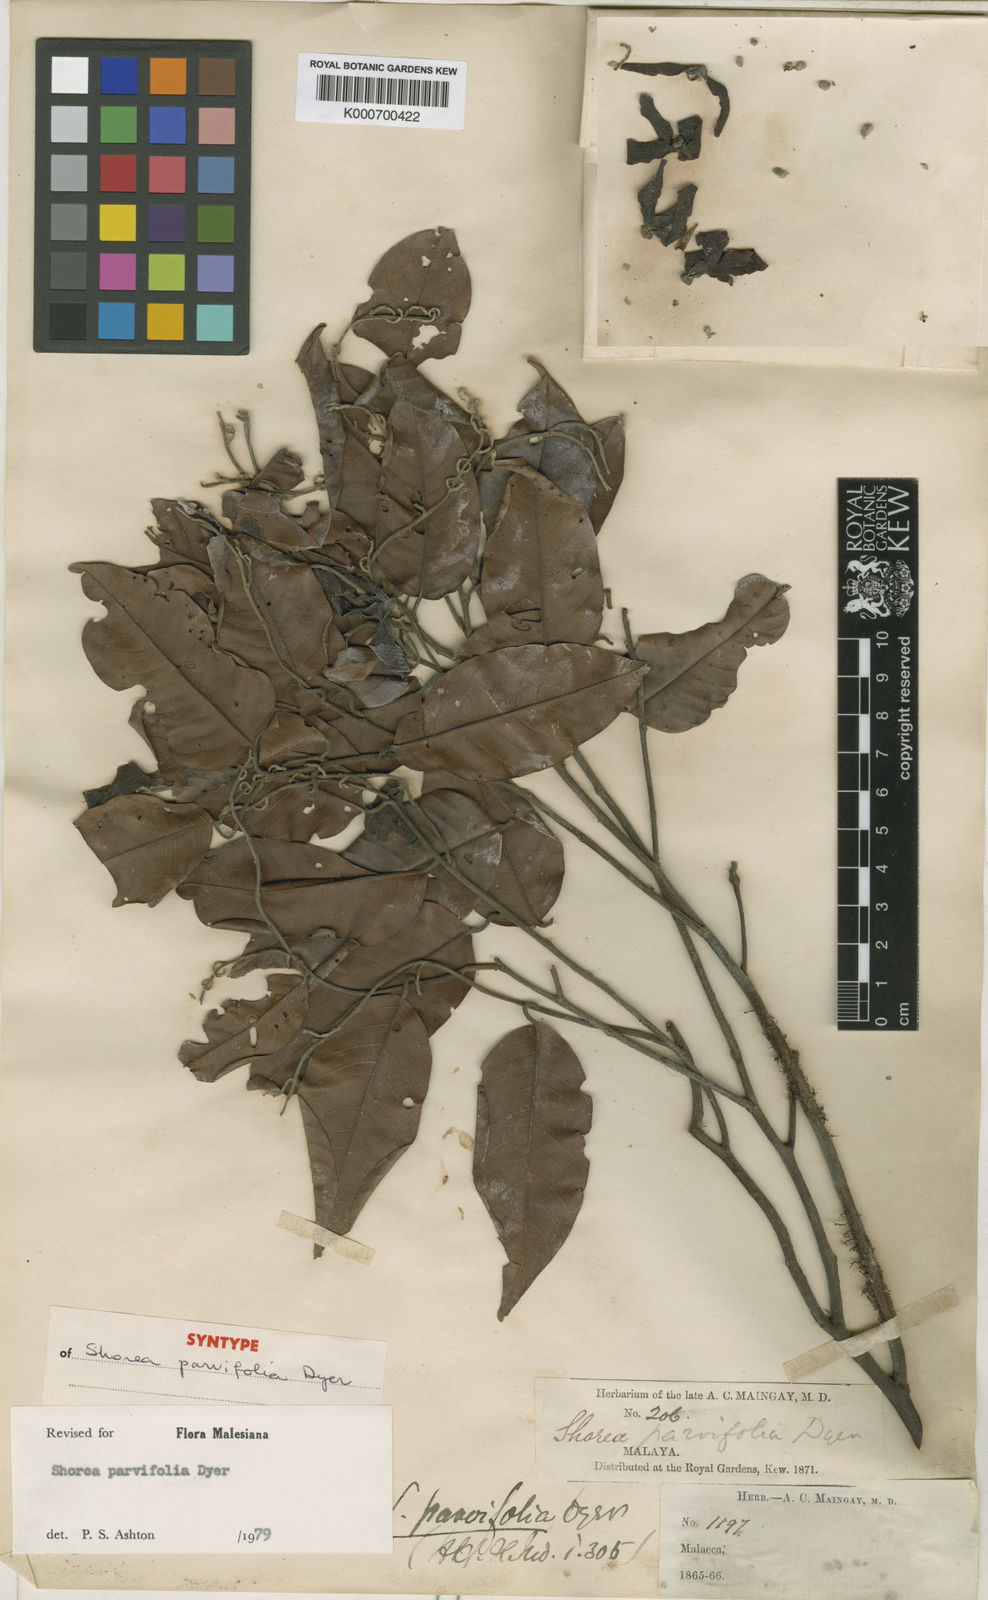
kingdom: Plantae
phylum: Tracheophyta
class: Magnoliopsida
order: Malvales
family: Dipterocarpaceae
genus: Shorea
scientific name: Shorea parvifolia
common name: Light red meranti
